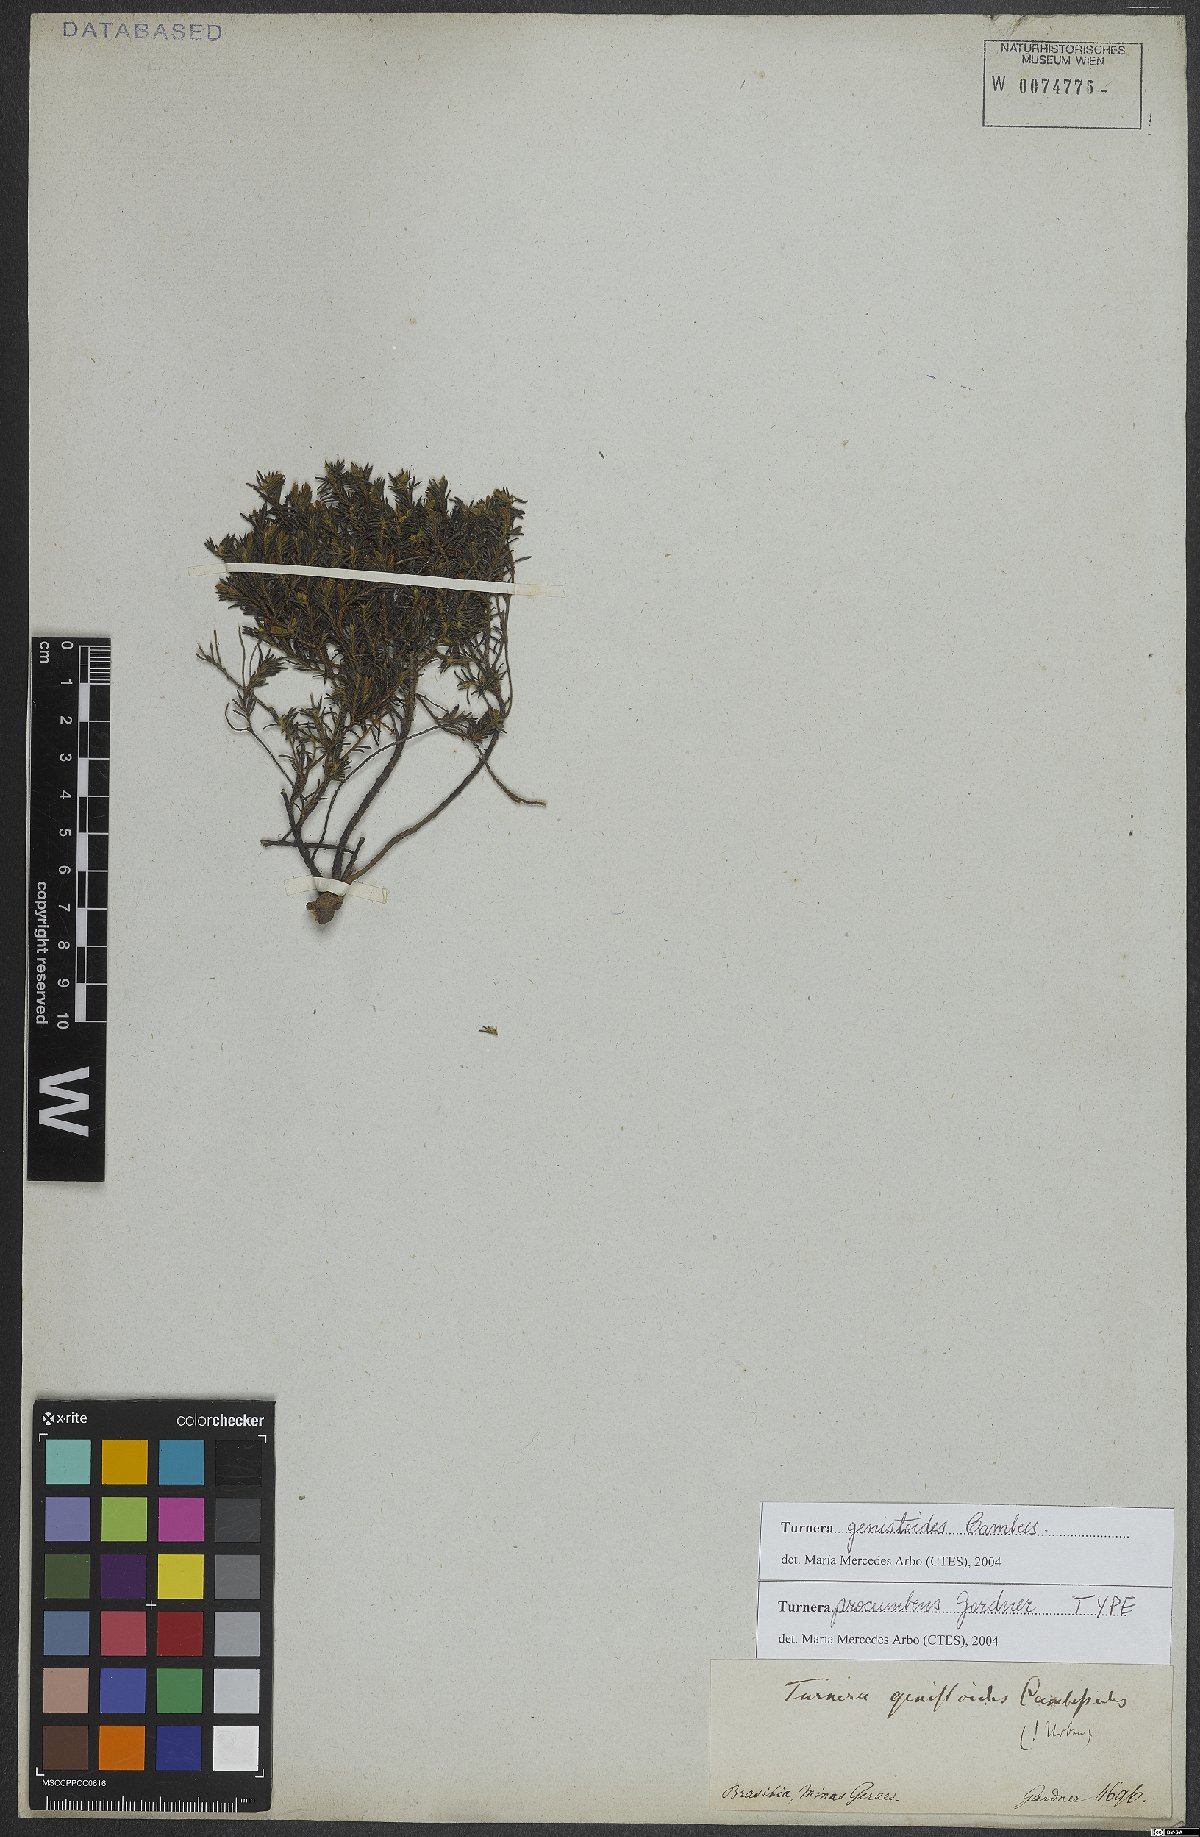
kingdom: Plantae
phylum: Tracheophyta
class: Magnoliopsida
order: Malpighiales
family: Turneraceae
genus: Turnera
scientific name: Turnera genistoides
